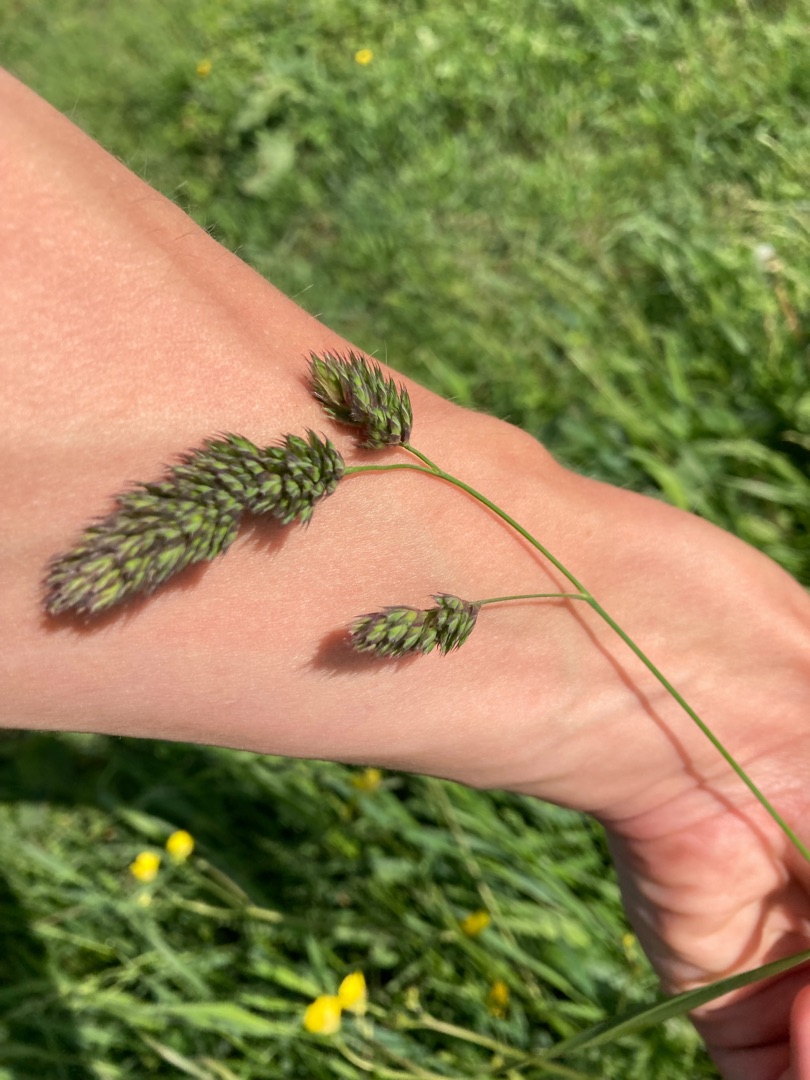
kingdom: Plantae
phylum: Tracheophyta
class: Liliopsida
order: Poales
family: Poaceae
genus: Dactylis
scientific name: Dactylis glomerata
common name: Almindelig hundegræs
